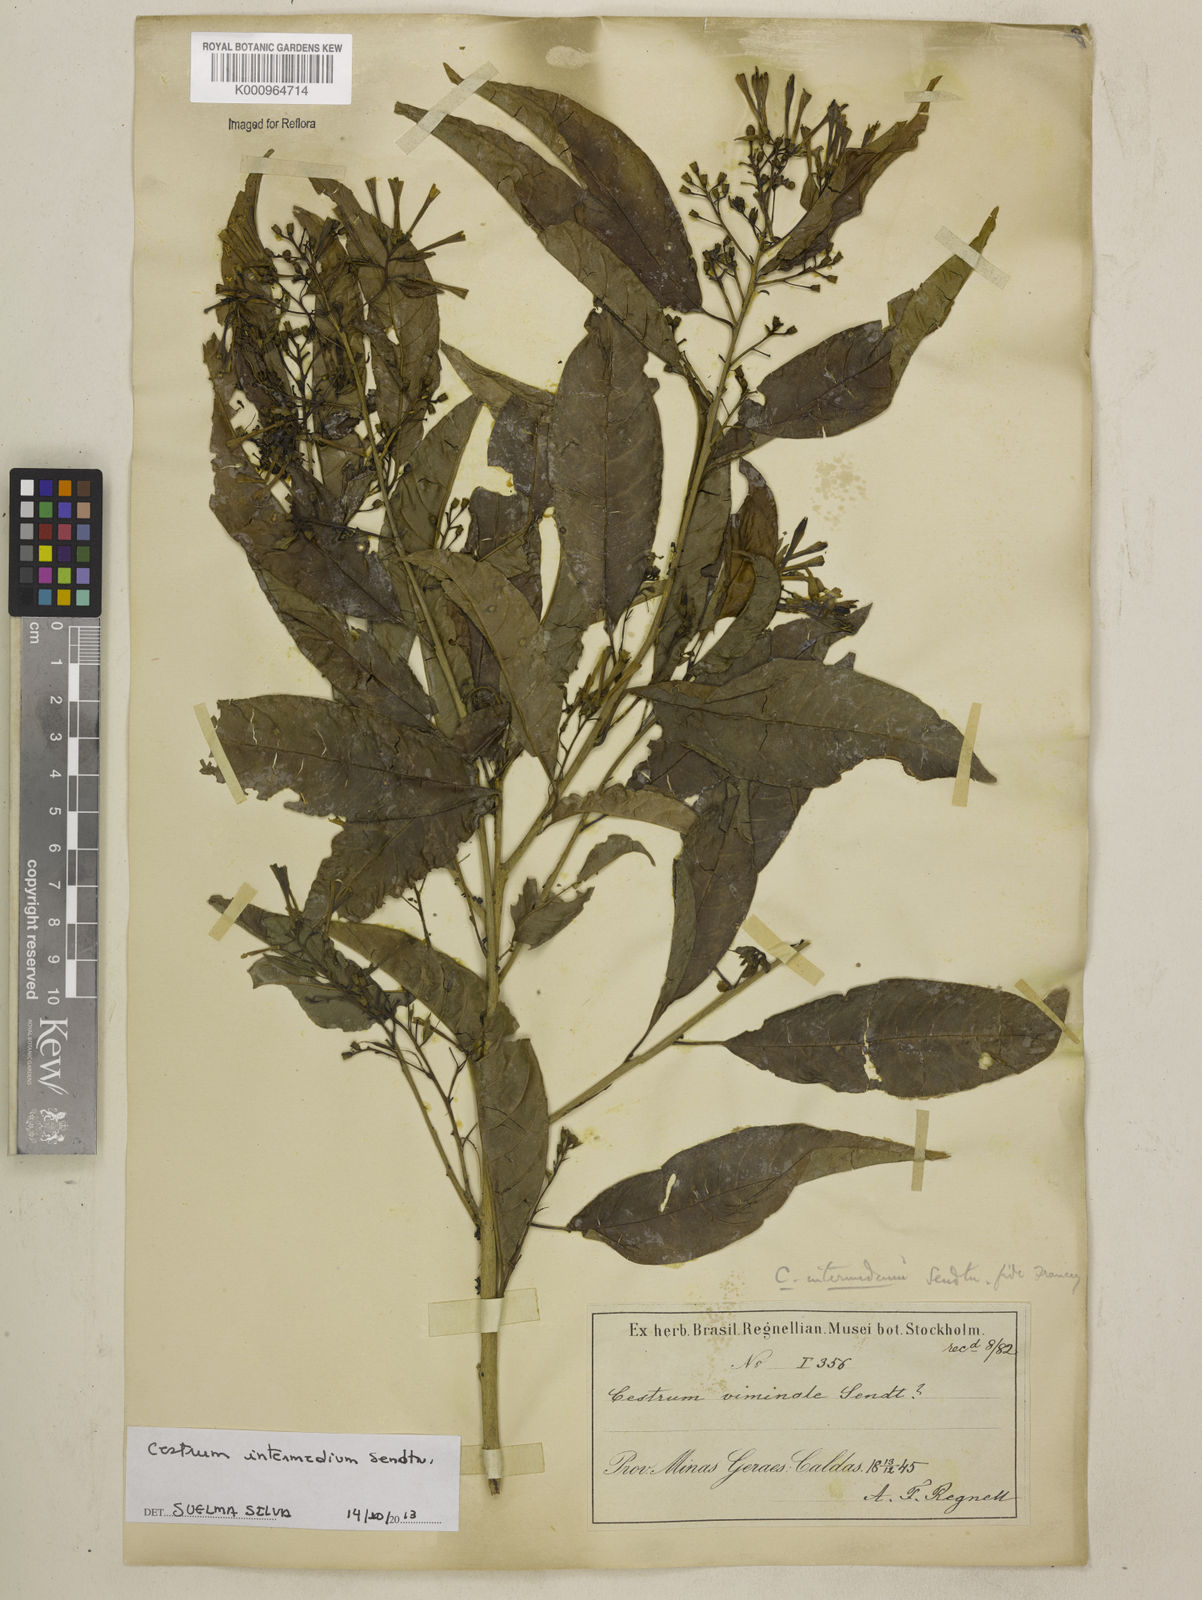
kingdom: Plantae
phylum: Tracheophyta
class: Magnoliopsida
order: Solanales
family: Solanaceae
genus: Cestrum
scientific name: Cestrum intermedium
